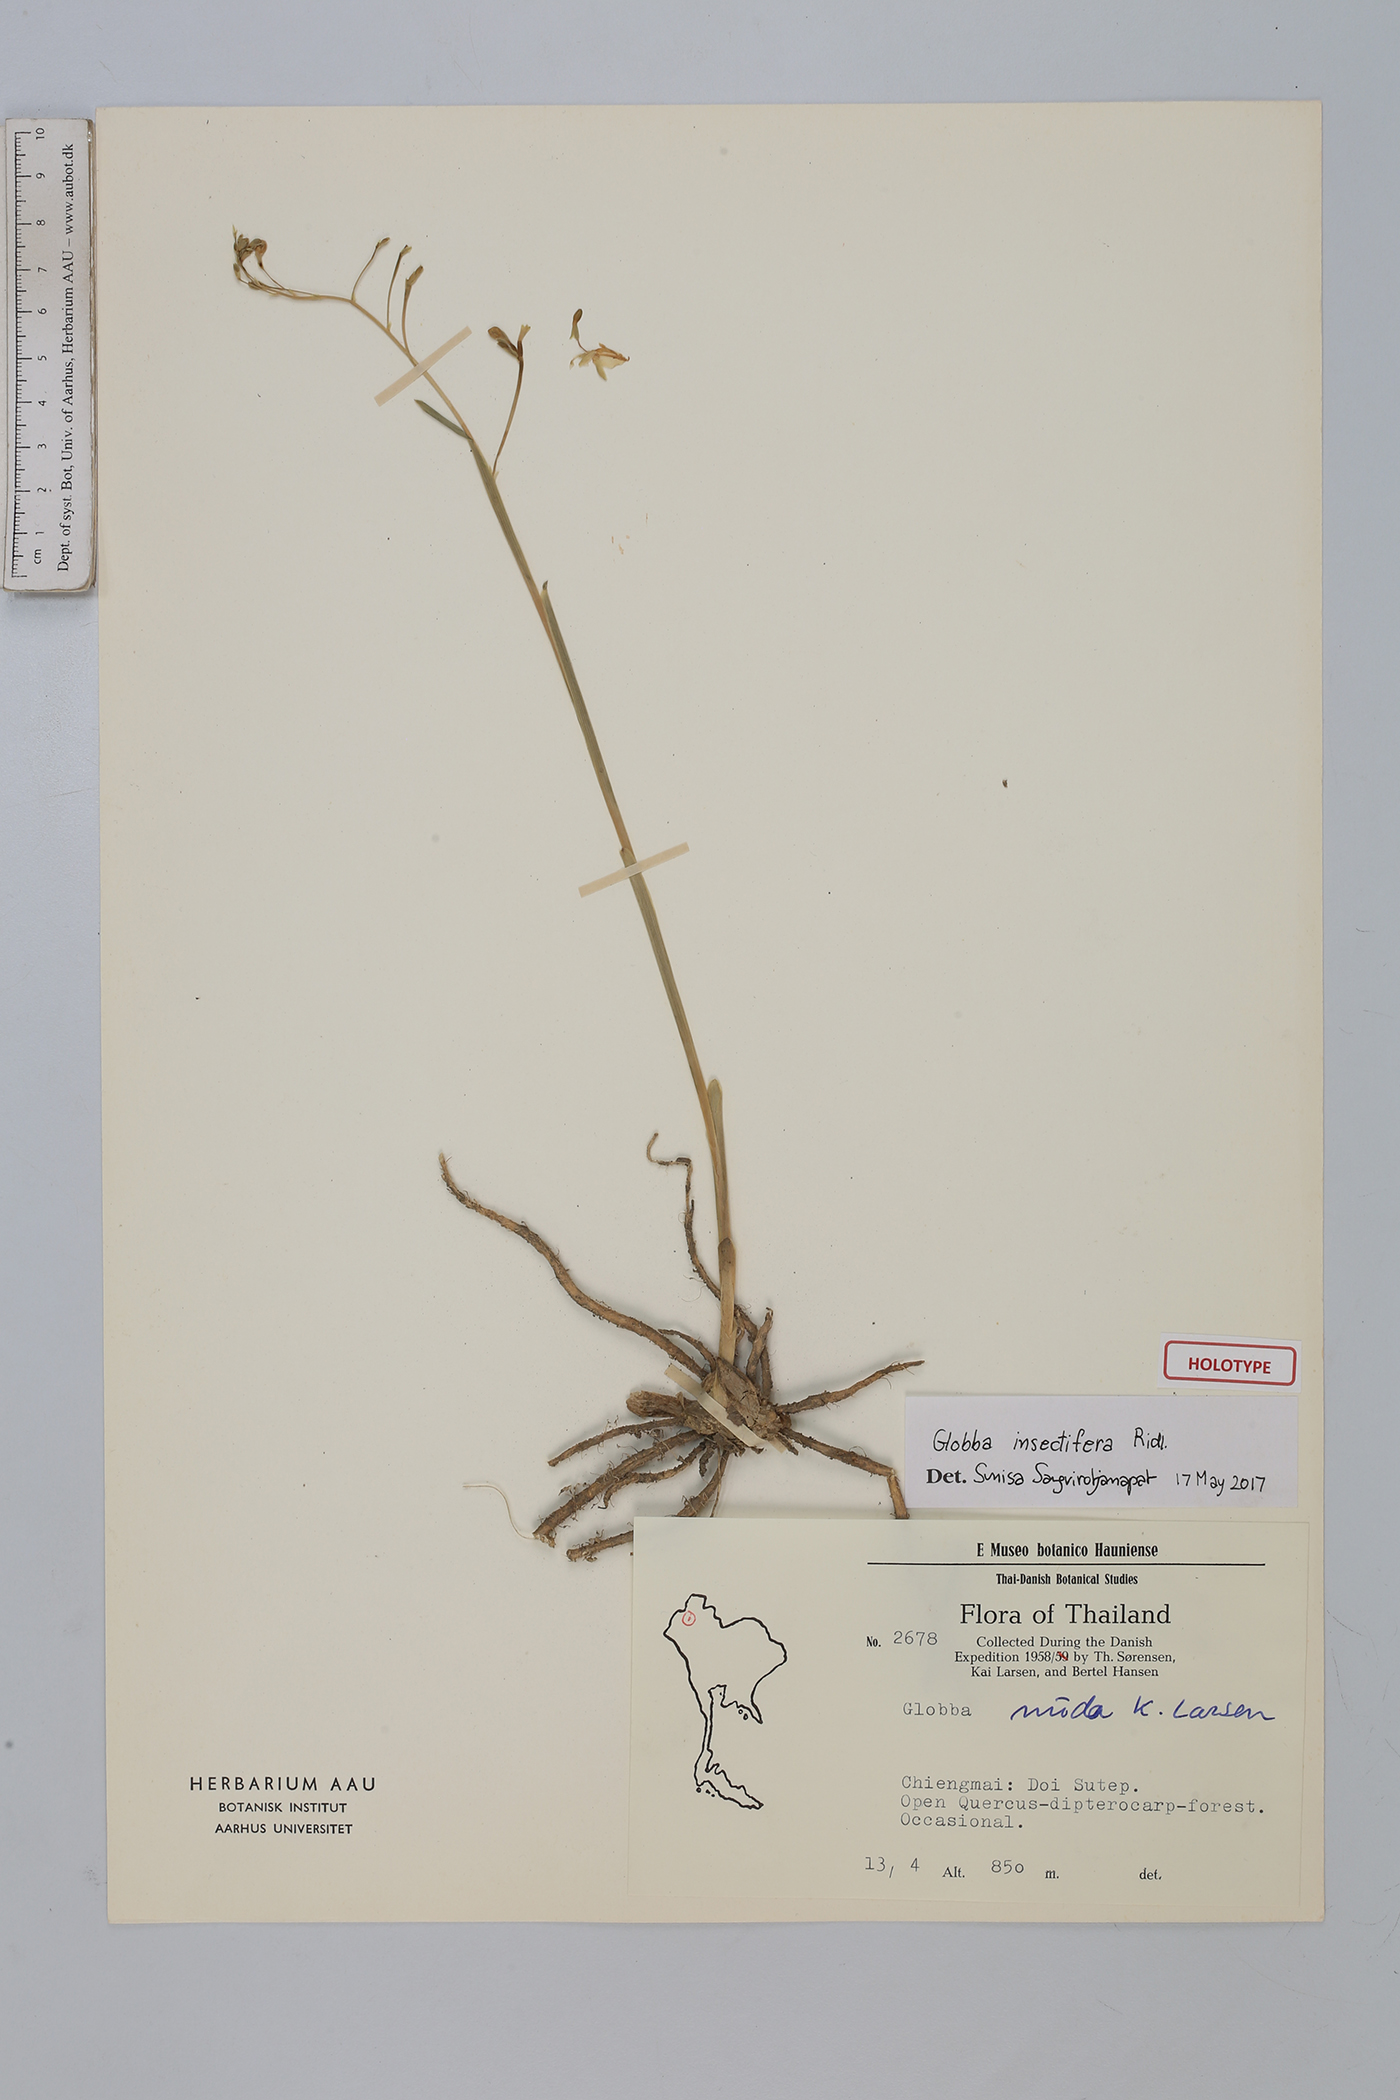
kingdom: Plantae
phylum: Tracheophyta
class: Liliopsida
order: Zingiberales
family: Zingiberaceae
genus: Globba
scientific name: Globba insectifera
